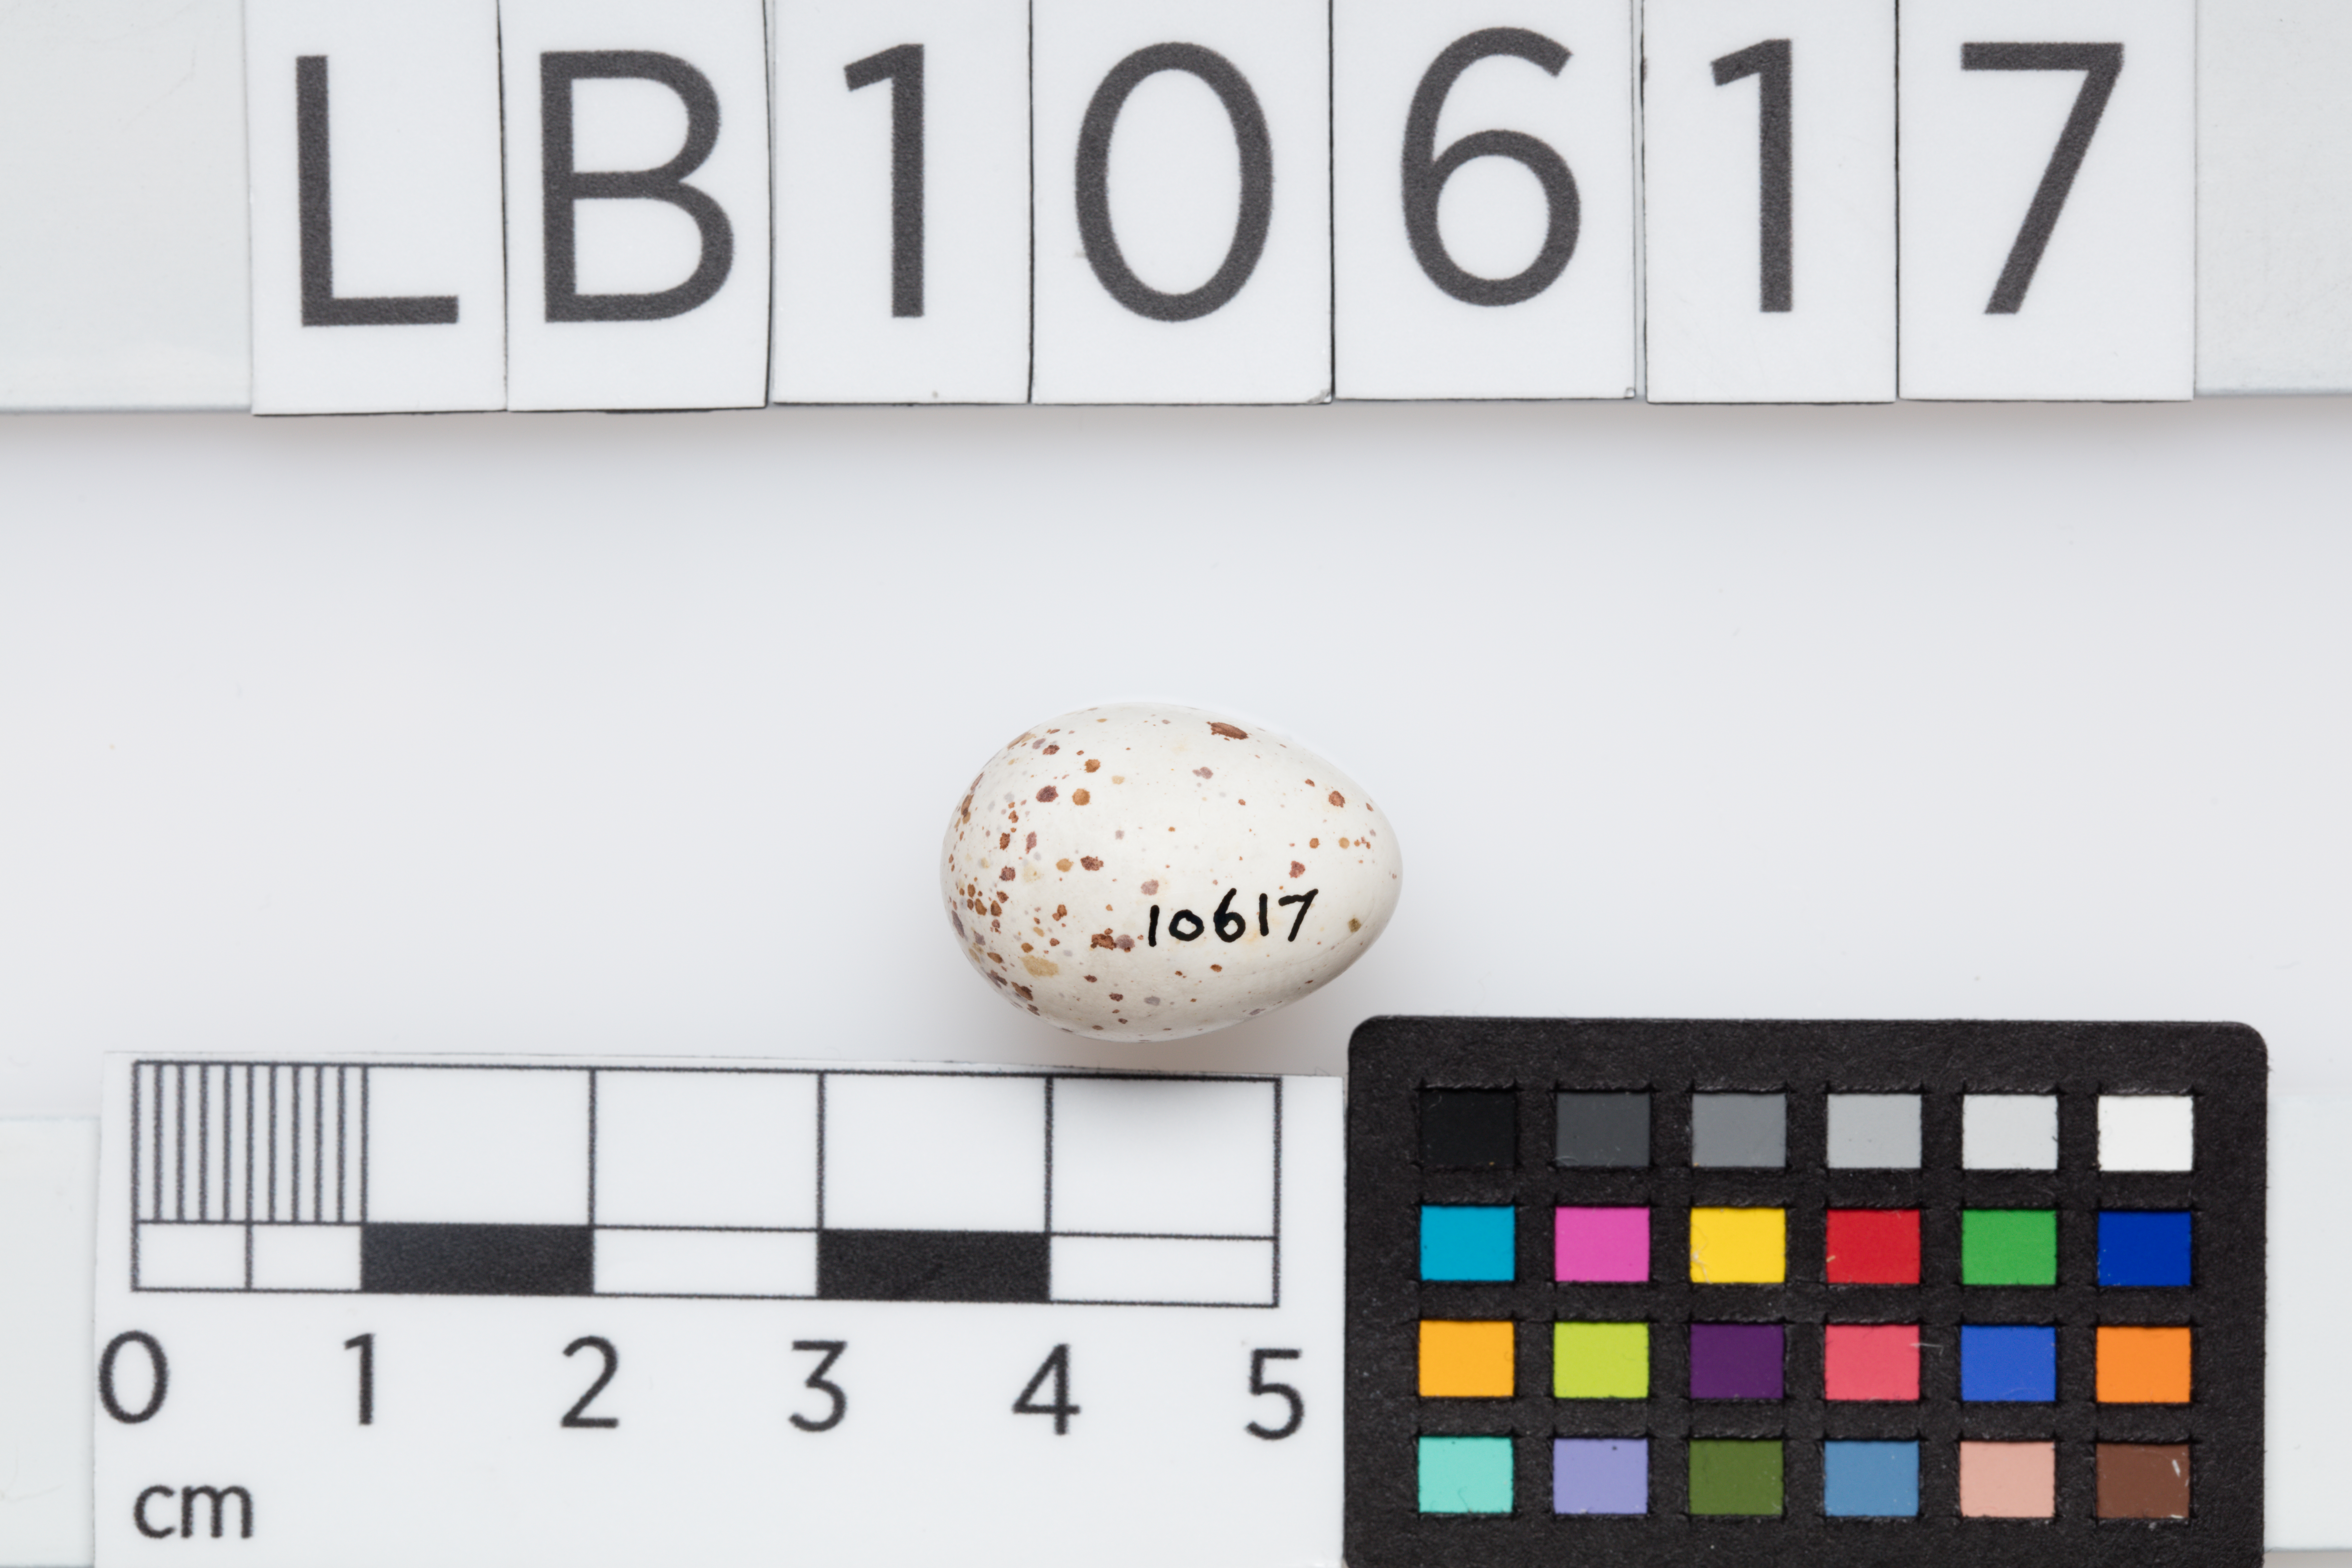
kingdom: Animalia
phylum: Chordata
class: Aves
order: Passeriformes
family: Sittidae
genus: Sitta
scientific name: Sitta europaea
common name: Eurasian nuthatch
